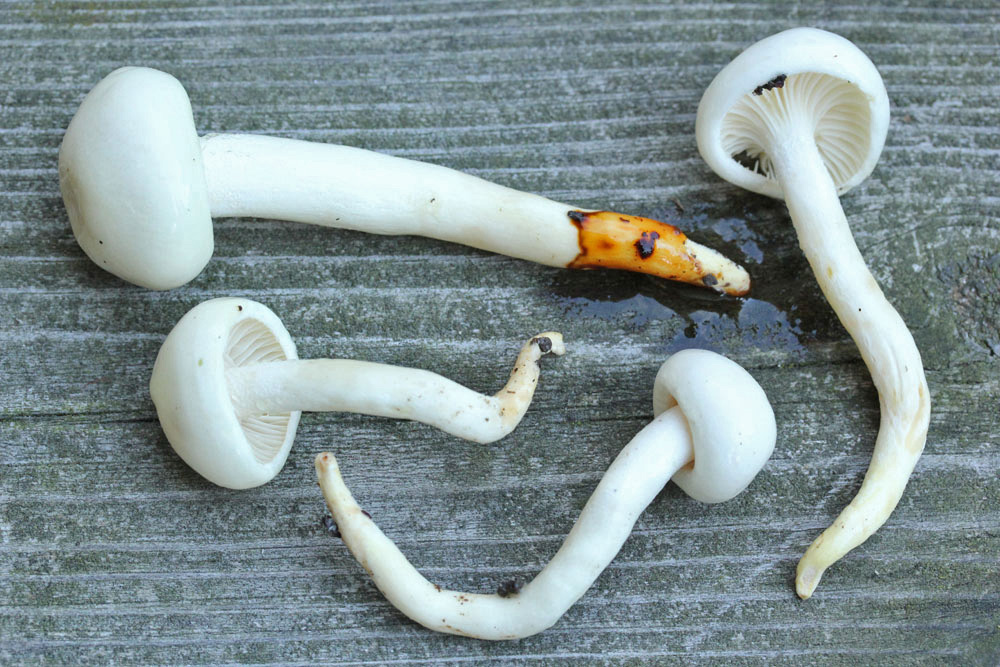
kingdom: Fungi
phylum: Basidiomycota
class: Agaricomycetes
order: Agaricales
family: Hygrophoraceae
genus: Hygrophorus
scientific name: Hygrophorus eburneus
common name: elfenbens-sneglehat
